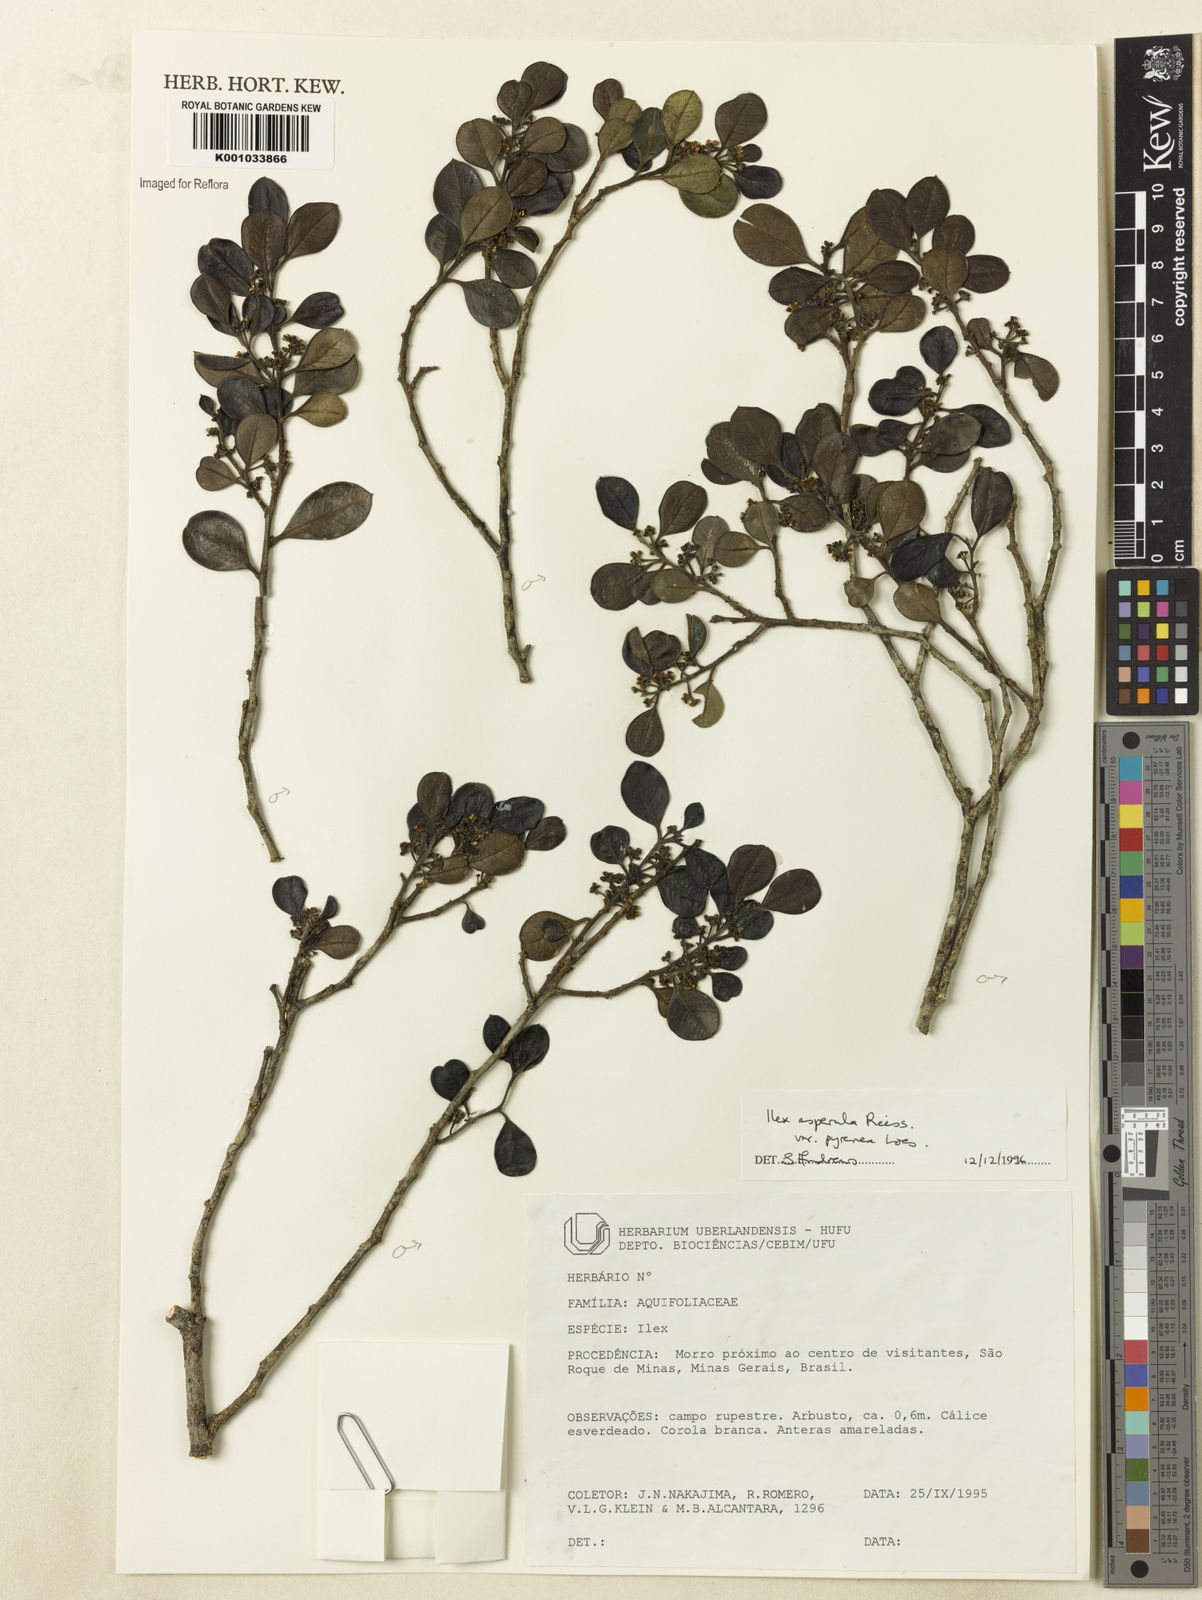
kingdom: Plantae
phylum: Tracheophyta
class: Magnoliopsida
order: Aquifoliales
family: Aquifoliaceae
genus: Ilex
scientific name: Ilex asperula
